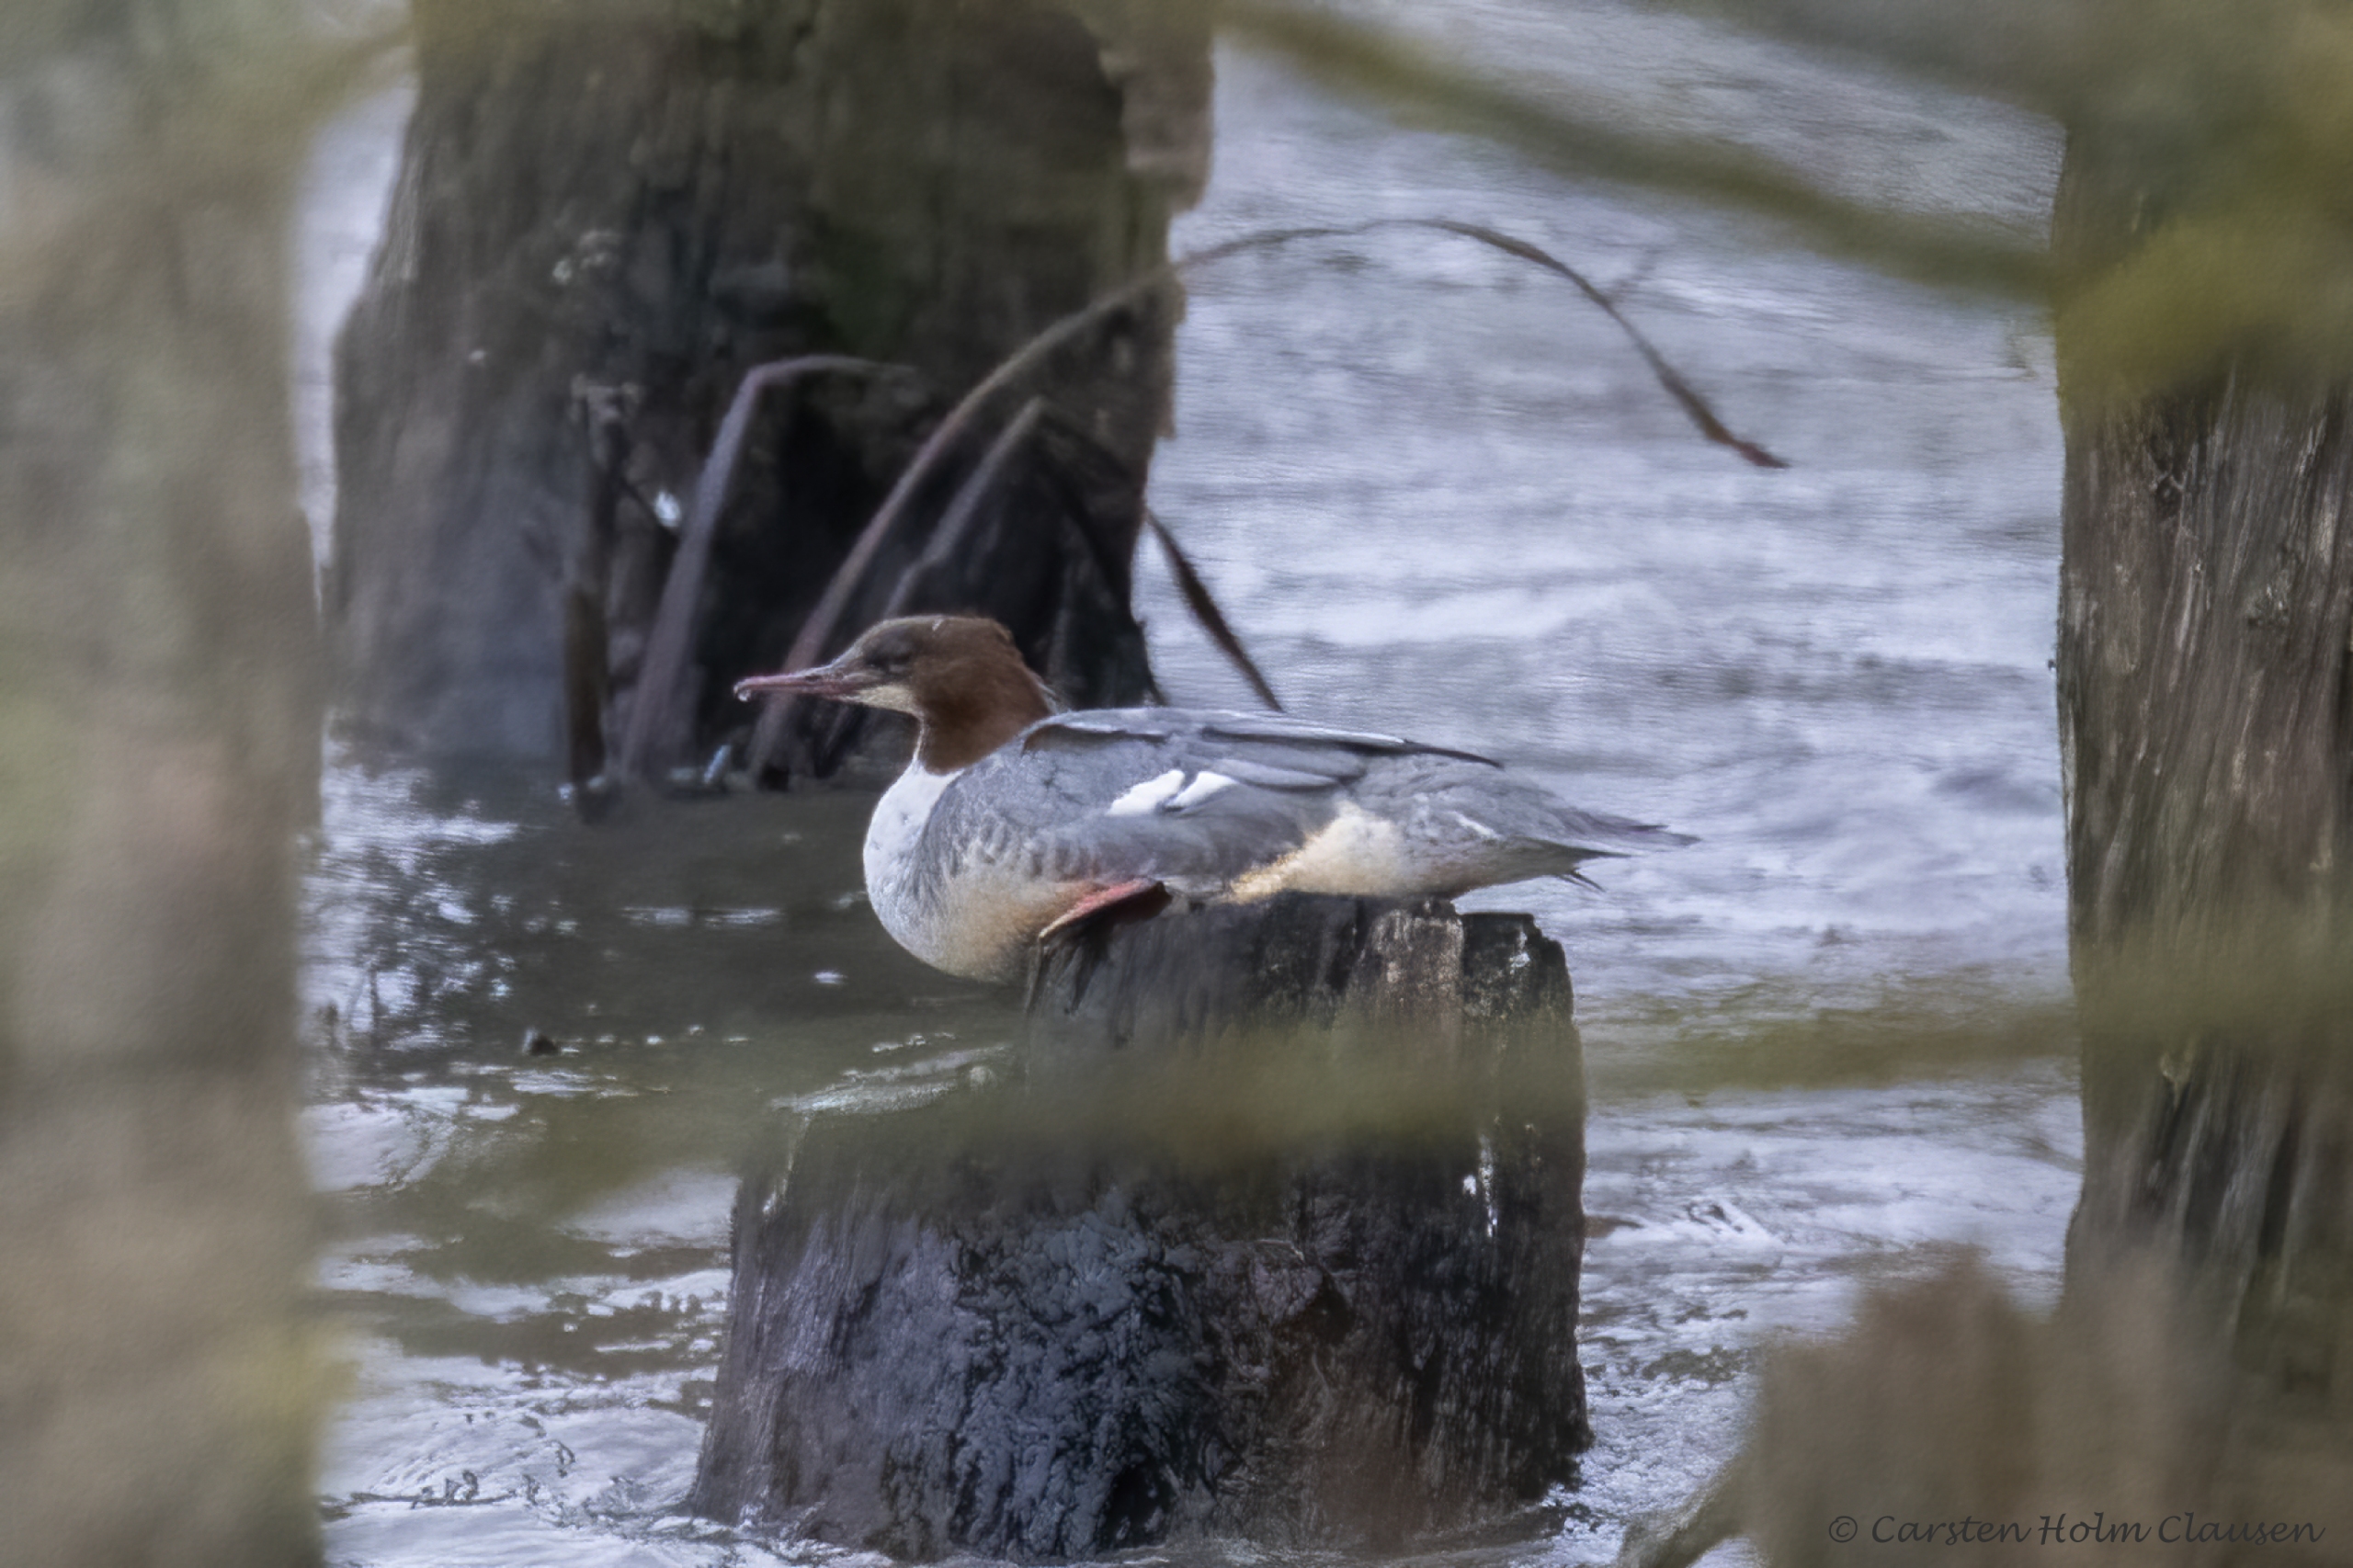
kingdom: Animalia
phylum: Chordata
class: Aves
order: Anseriformes
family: Anatidae
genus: Mergus
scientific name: Mergus merganser
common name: Stor skallesluger
